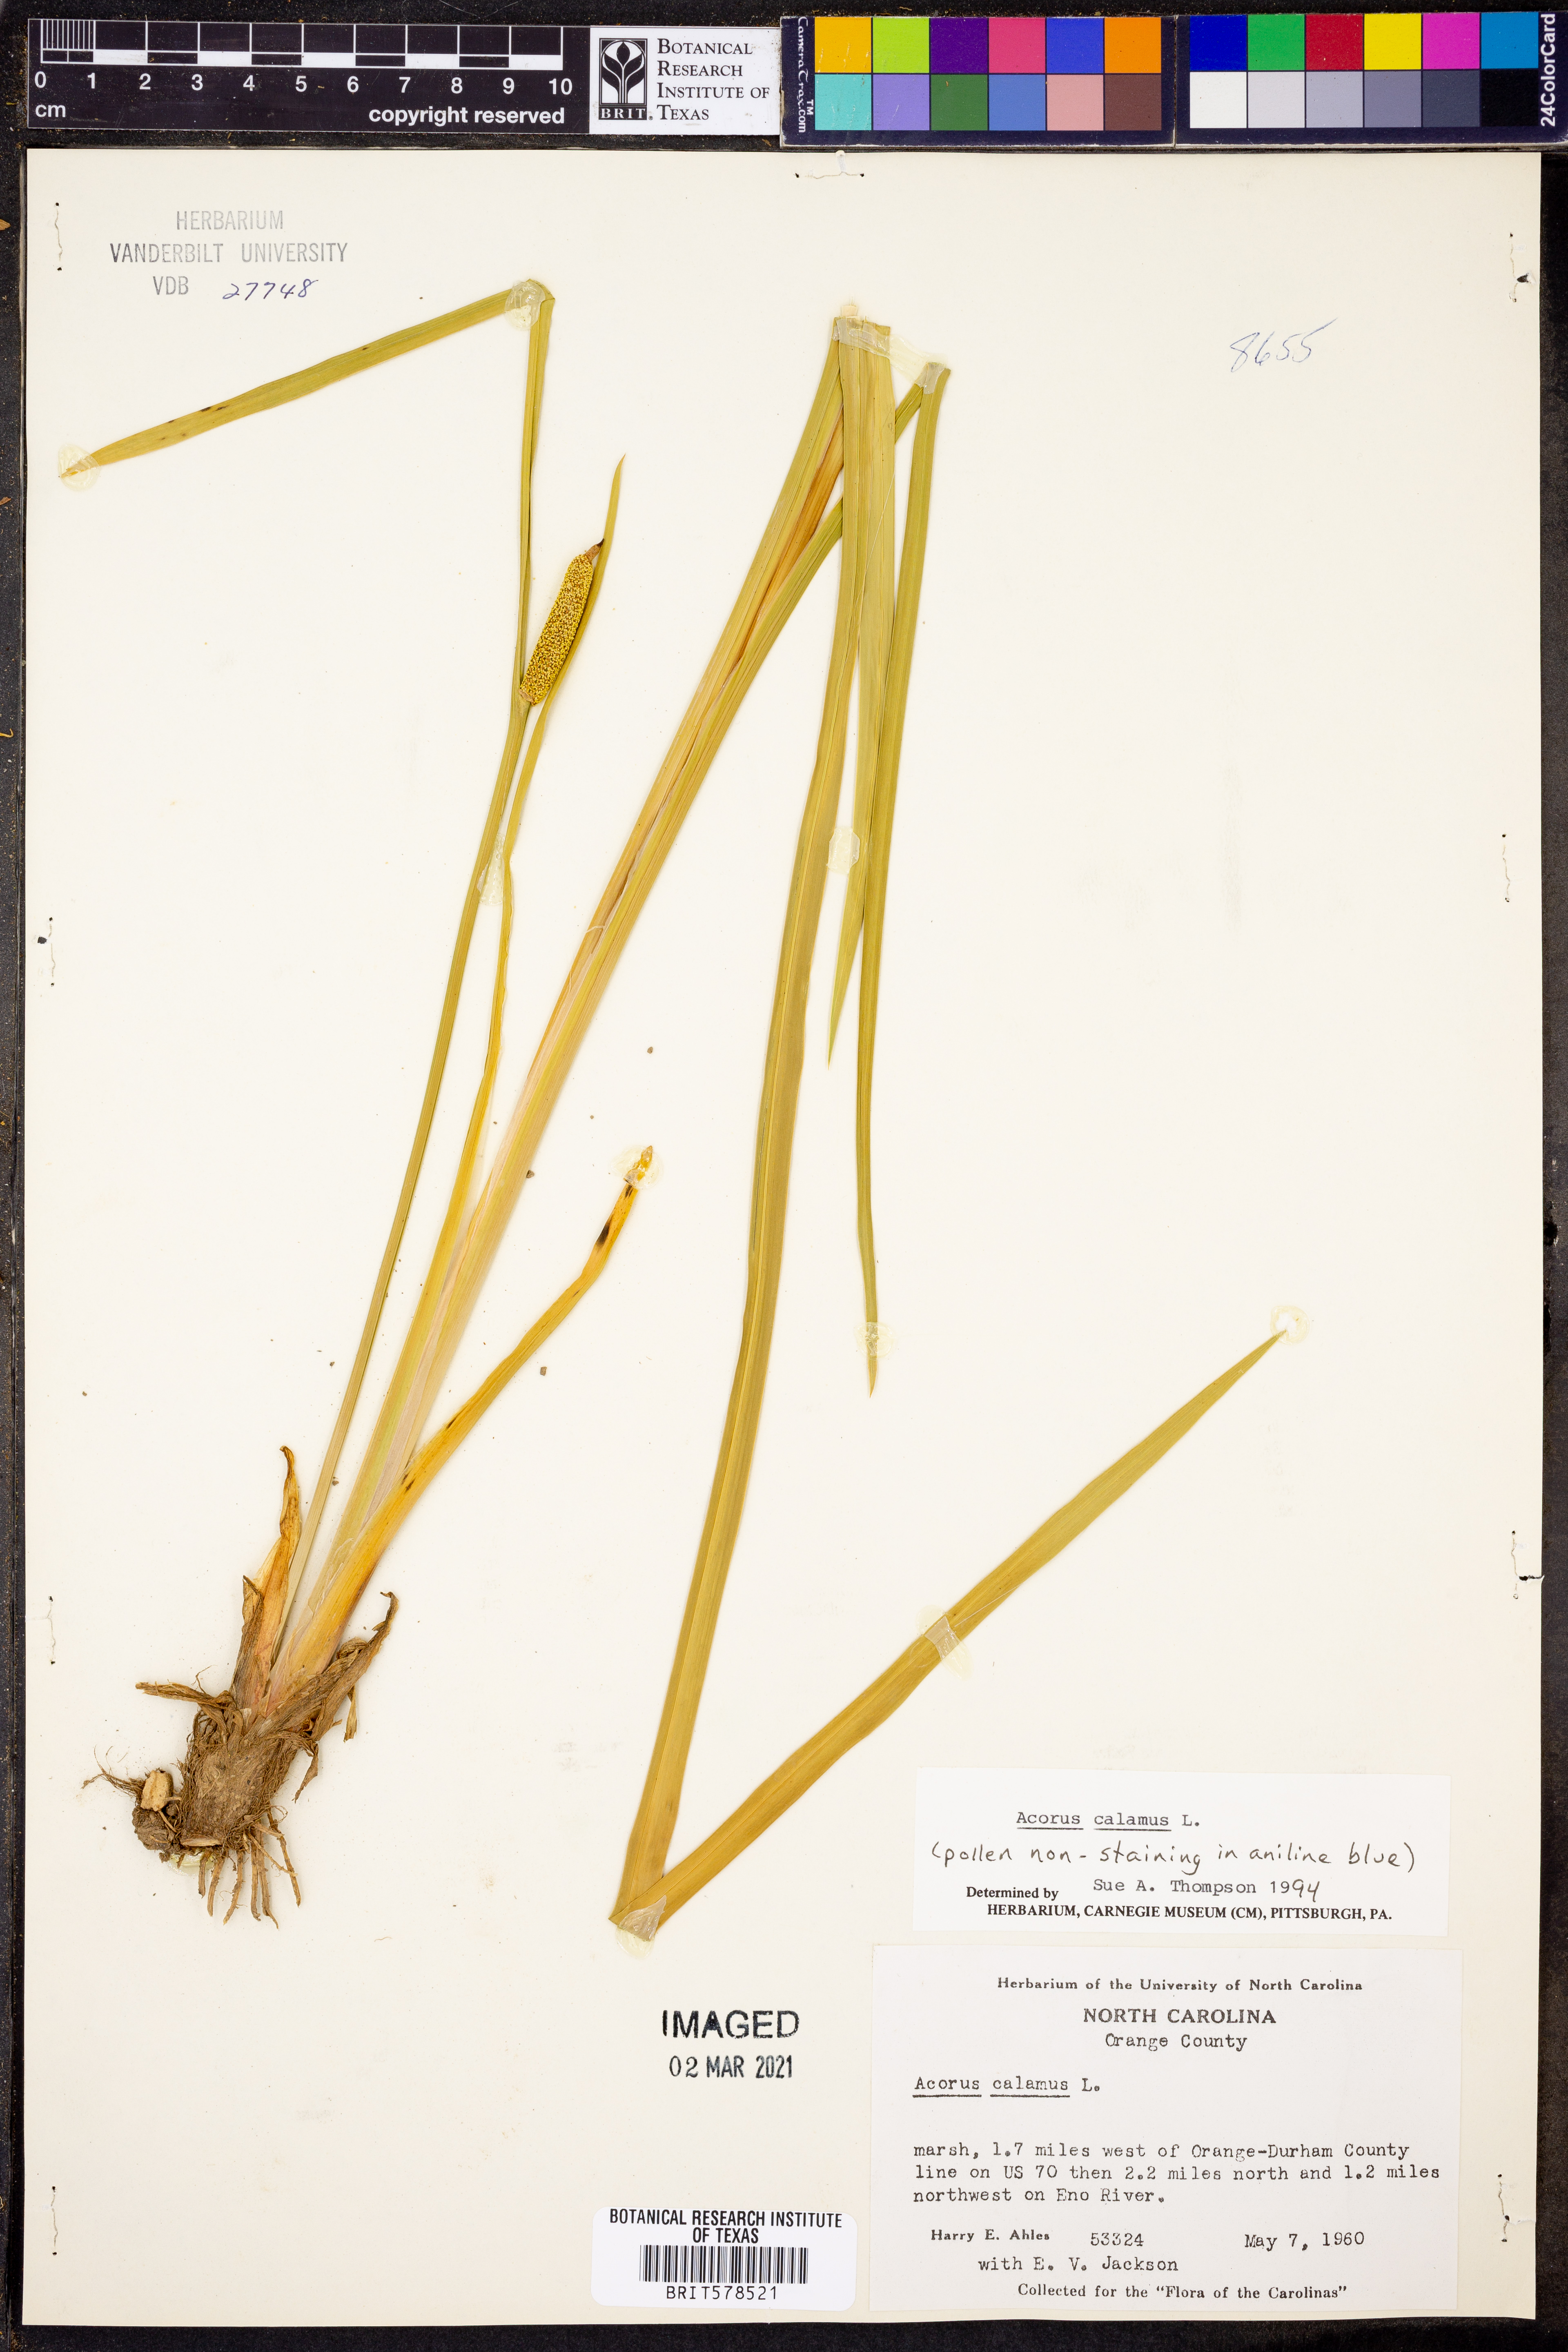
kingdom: Plantae
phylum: Tracheophyta
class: Liliopsida
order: Acorales
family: Acoraceae
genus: Acorus
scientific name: Acorus calamus
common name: Sweet-flag
